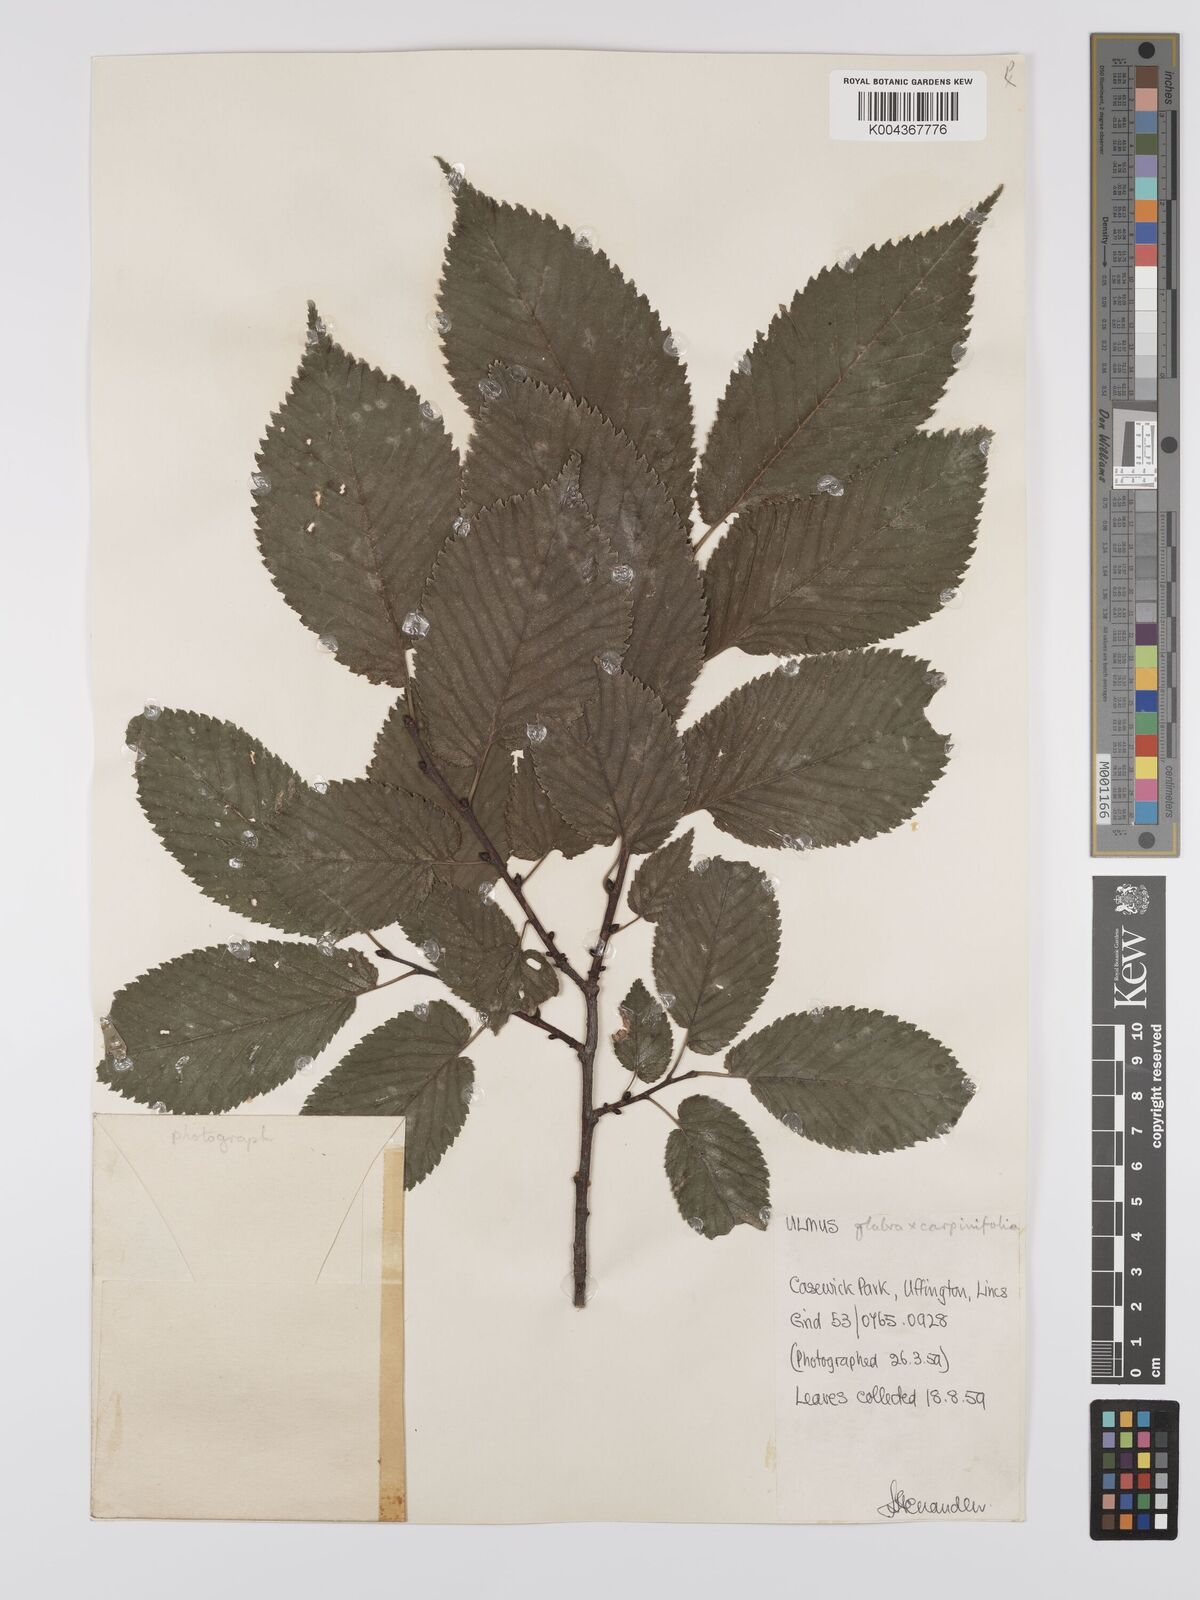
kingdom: Plantae
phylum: Tracheophyta
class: Magnoliopsida
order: Rosales
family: Ulmaceae
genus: Ulmus
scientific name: Ulmus
